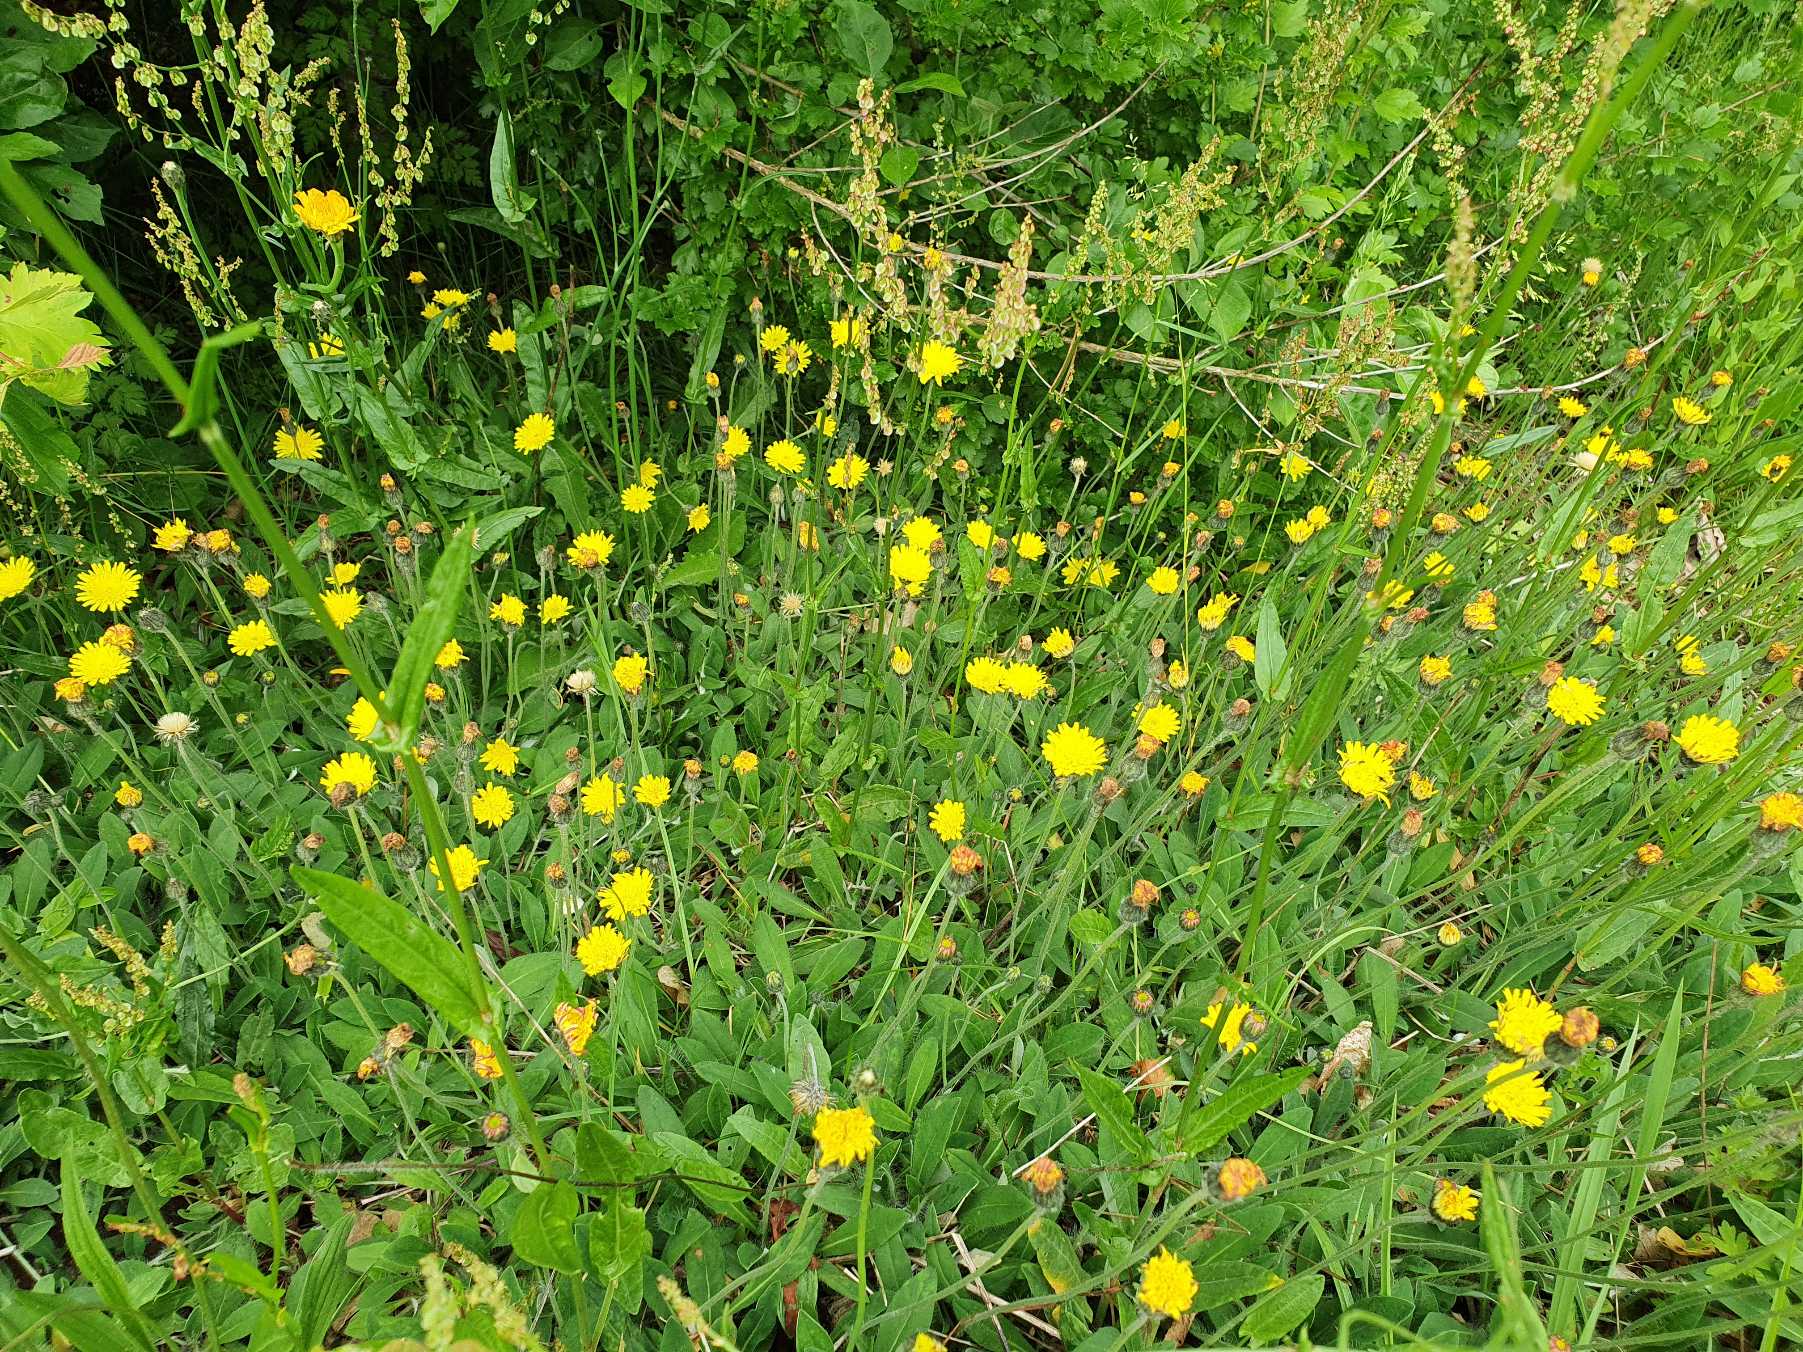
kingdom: Plantae
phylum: Tracheophyta
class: Magnoliopsida
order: Asterales
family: Asteraceae
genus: Pilosella
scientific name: Pilosella officinarum
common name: Håret høgeurt
